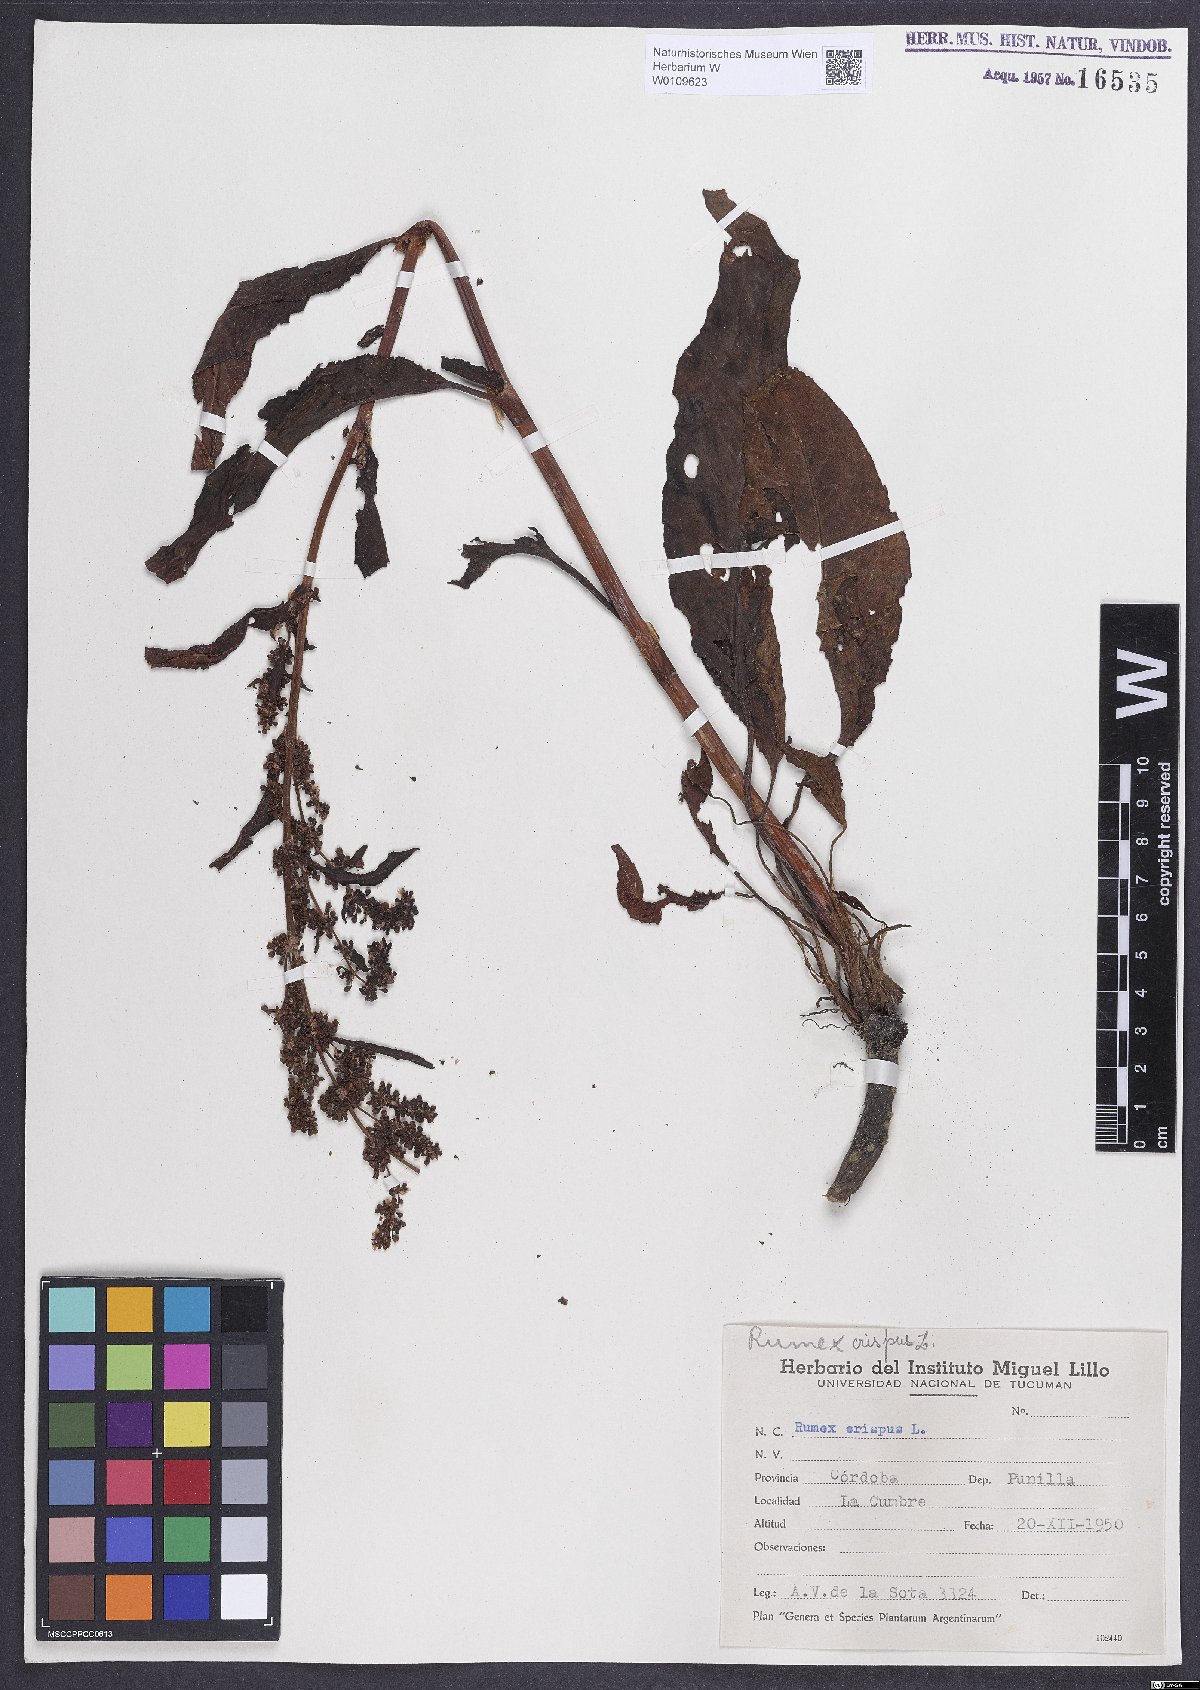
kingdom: Plantae
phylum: Tracheophyta
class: Magnoliopsida
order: Caryophyllales
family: Polygonaceae
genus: Rumex
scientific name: Rumex crispus
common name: Curled dock
